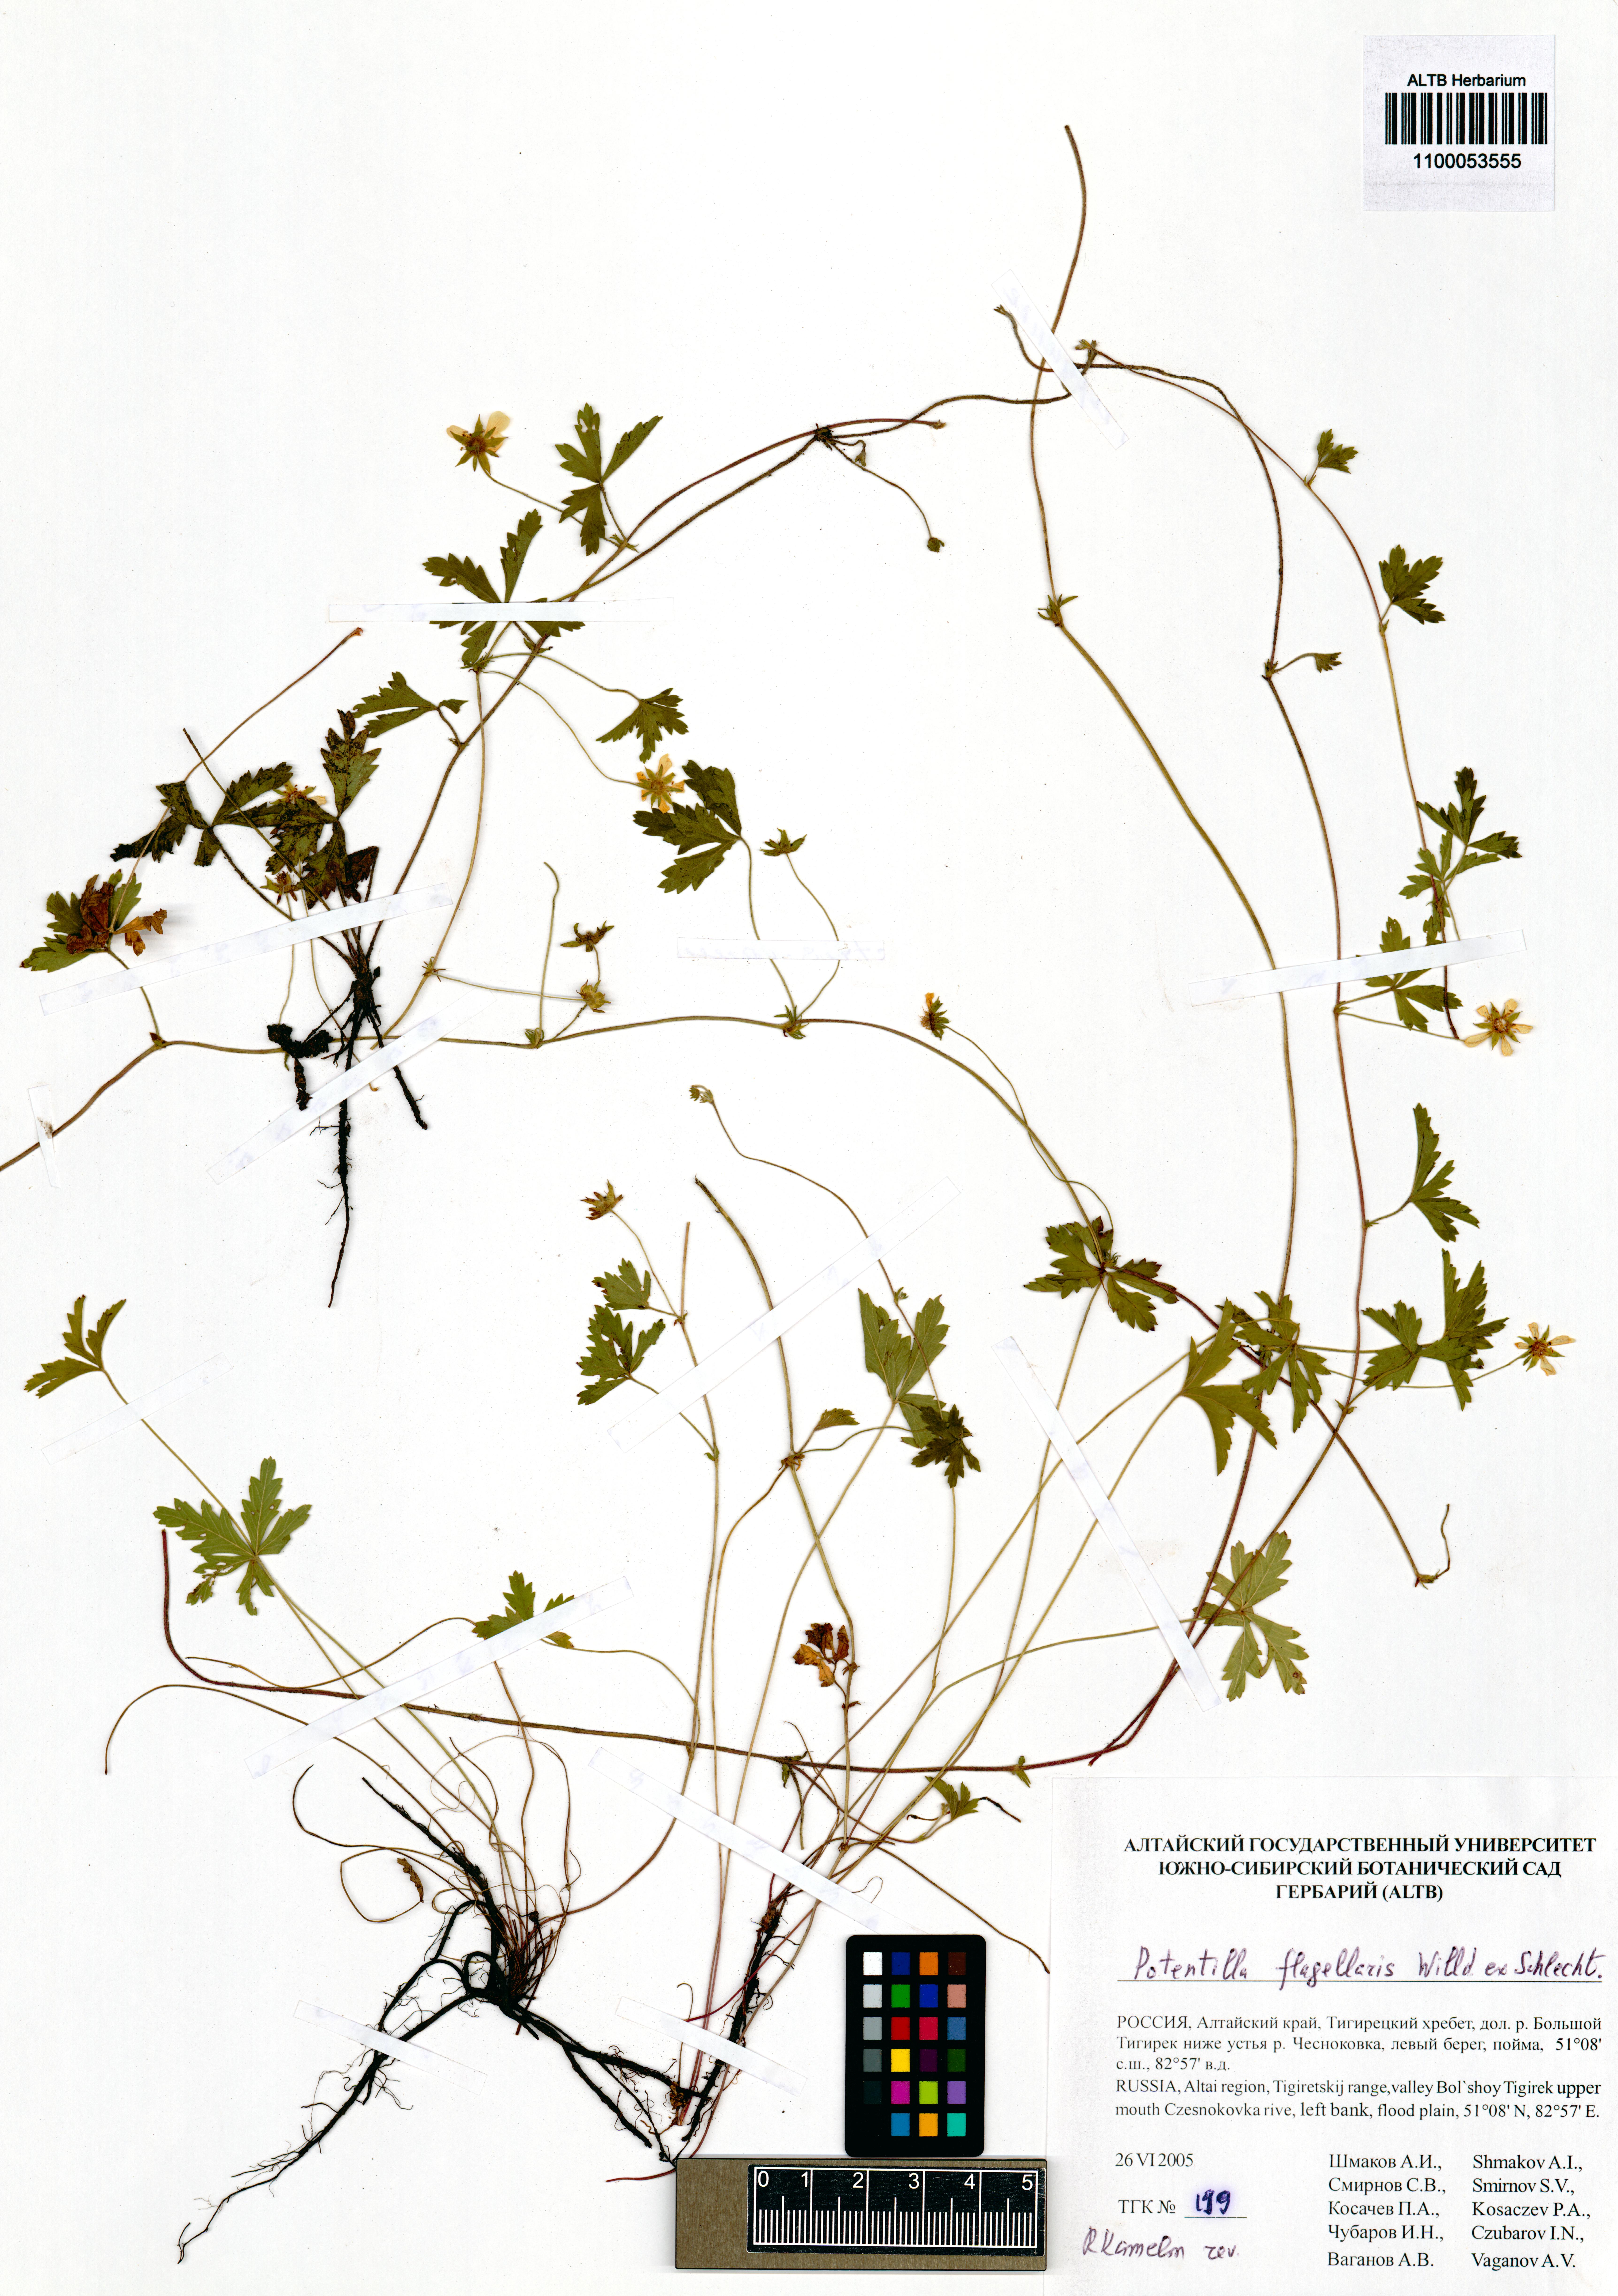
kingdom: Plantae
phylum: Tracheophyta
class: Magnoliopsida
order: Rosales
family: Rosaceae
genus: Potentilla
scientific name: Potentilla flagellaris
